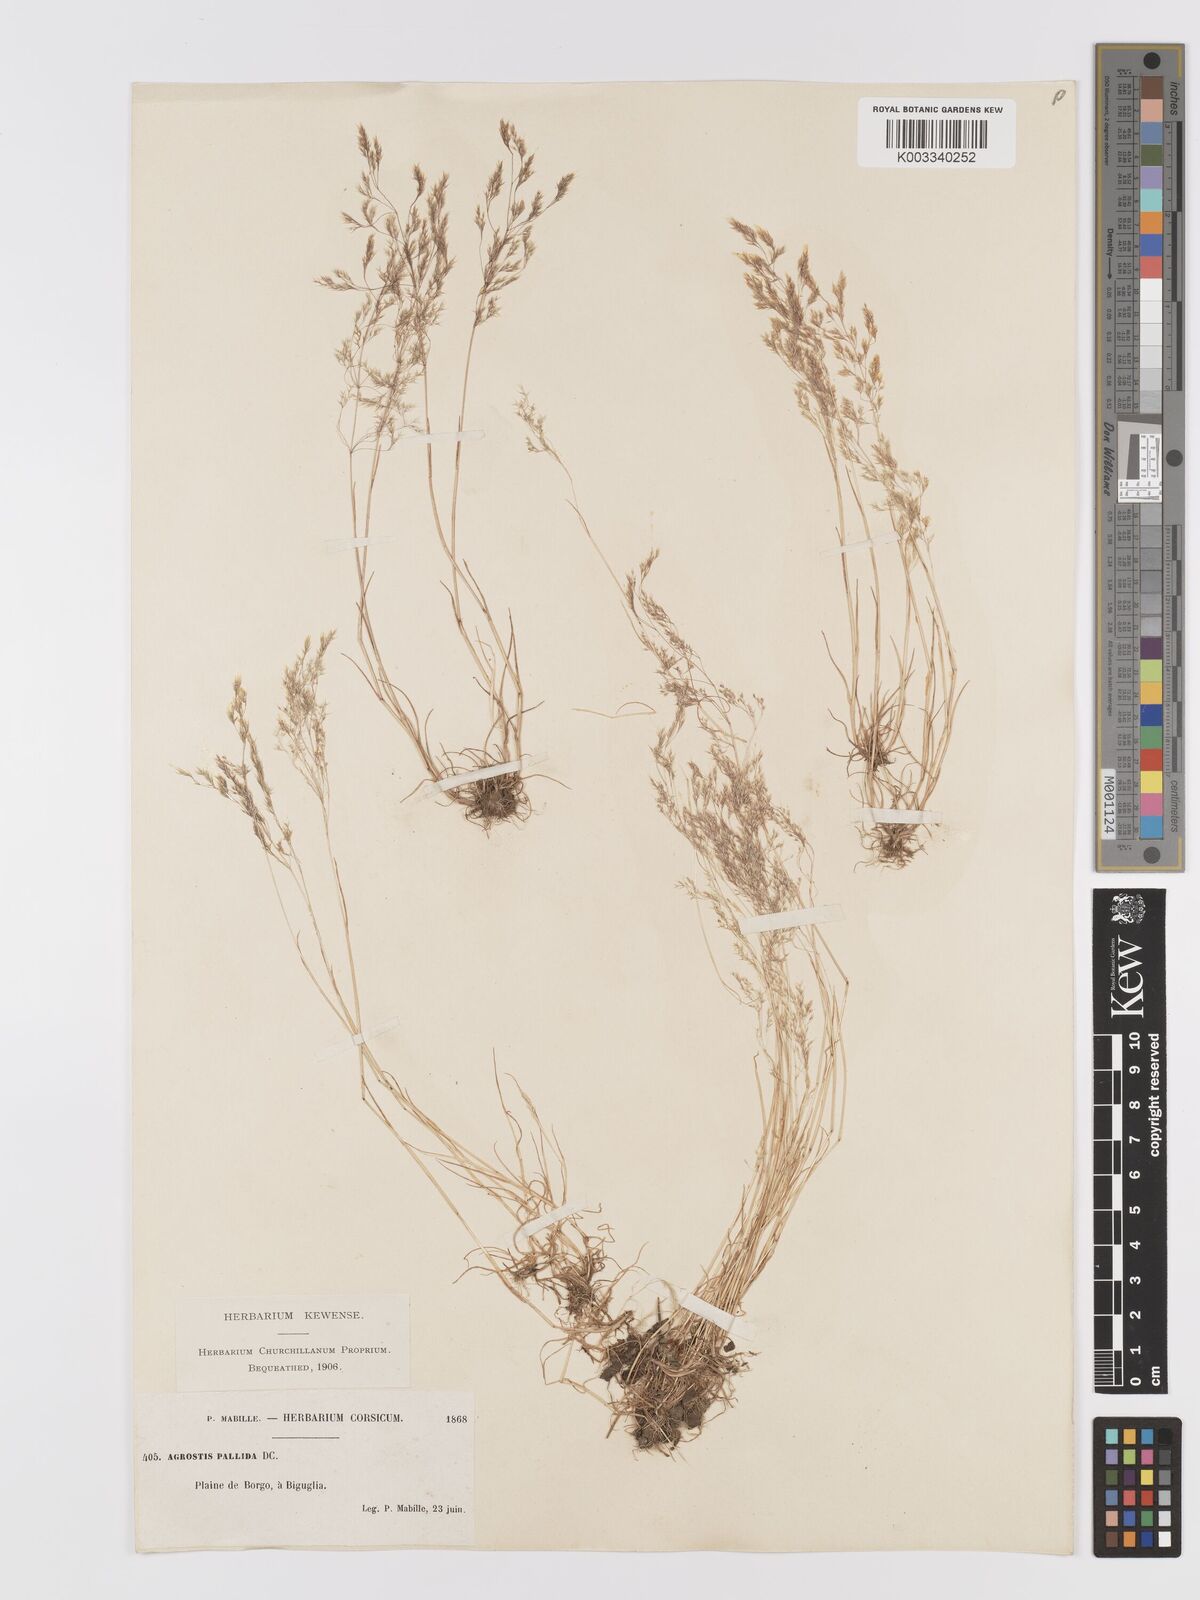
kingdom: Plantae
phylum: Tracheophyta
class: Liliopsida
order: Poales
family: Poaceae
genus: Agrostis
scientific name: Agrostis pourretii
